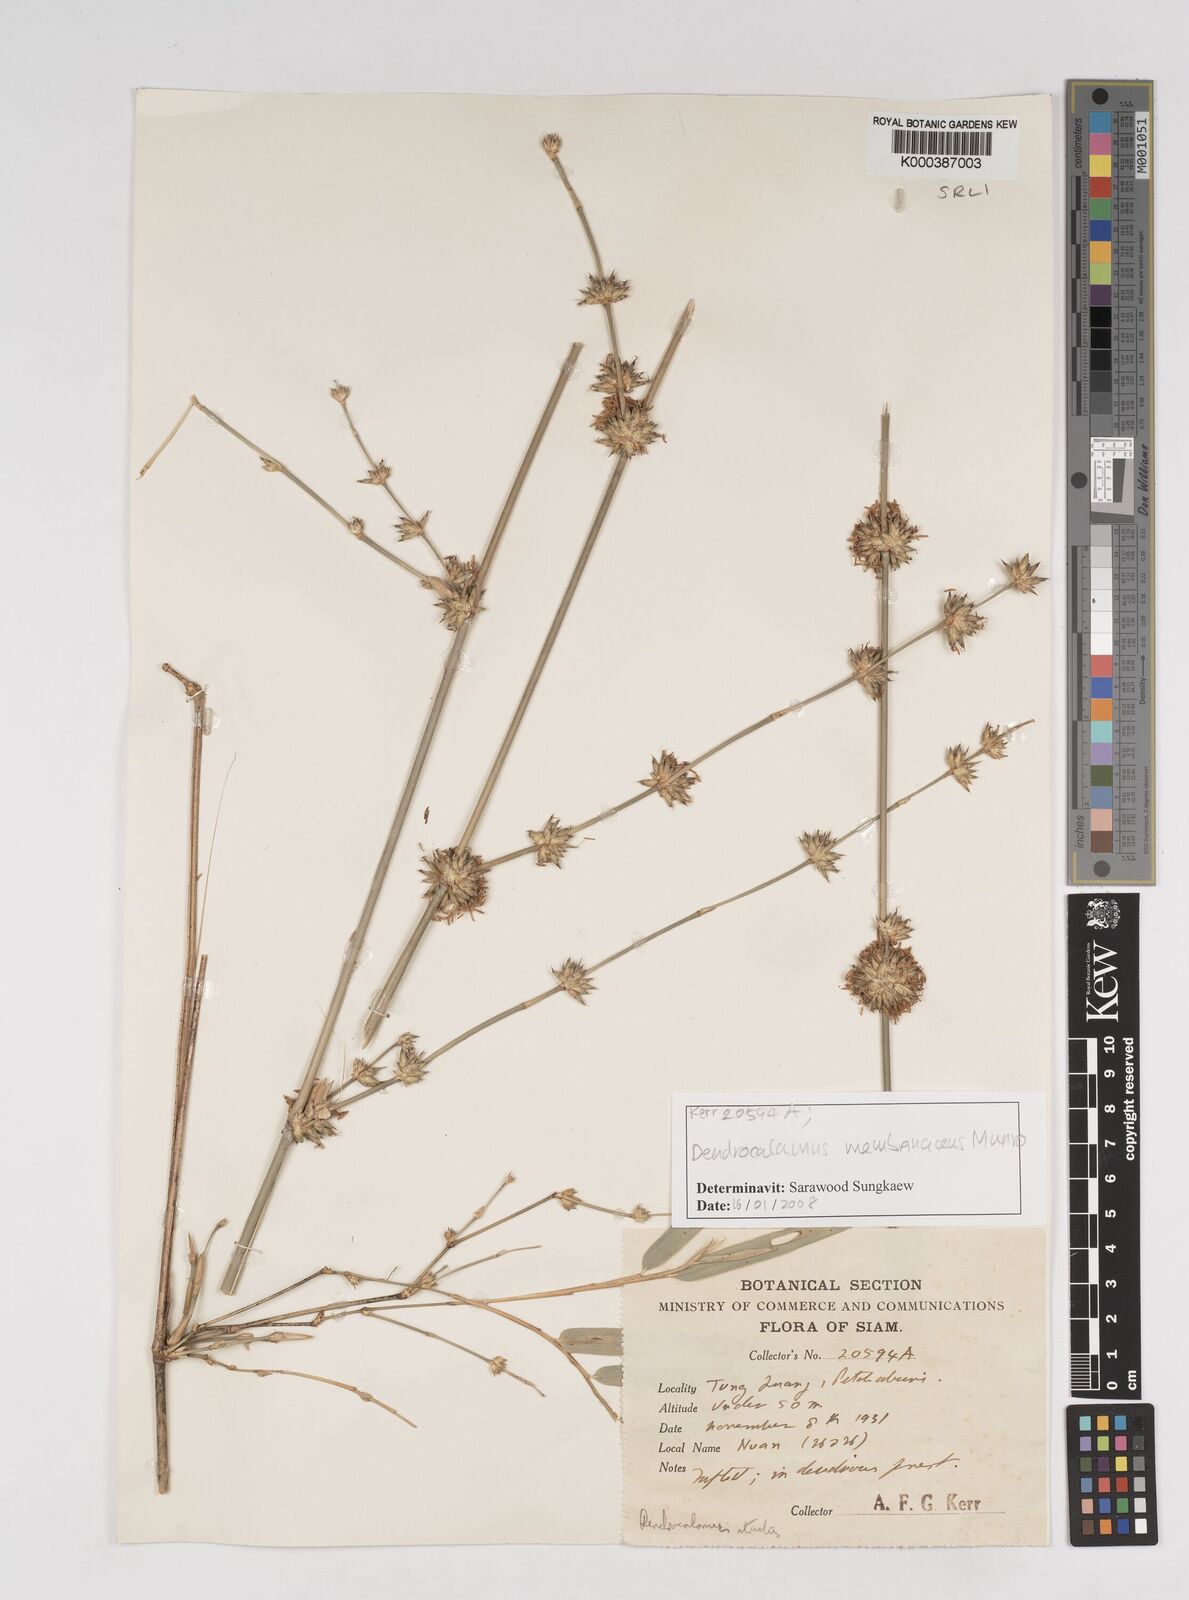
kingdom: Plantae
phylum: Tracheophyta
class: Liliopsida
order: Poales
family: Poaceae
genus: Dendrocalamus
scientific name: Dendrocalamus membranaceus
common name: White bamboo
